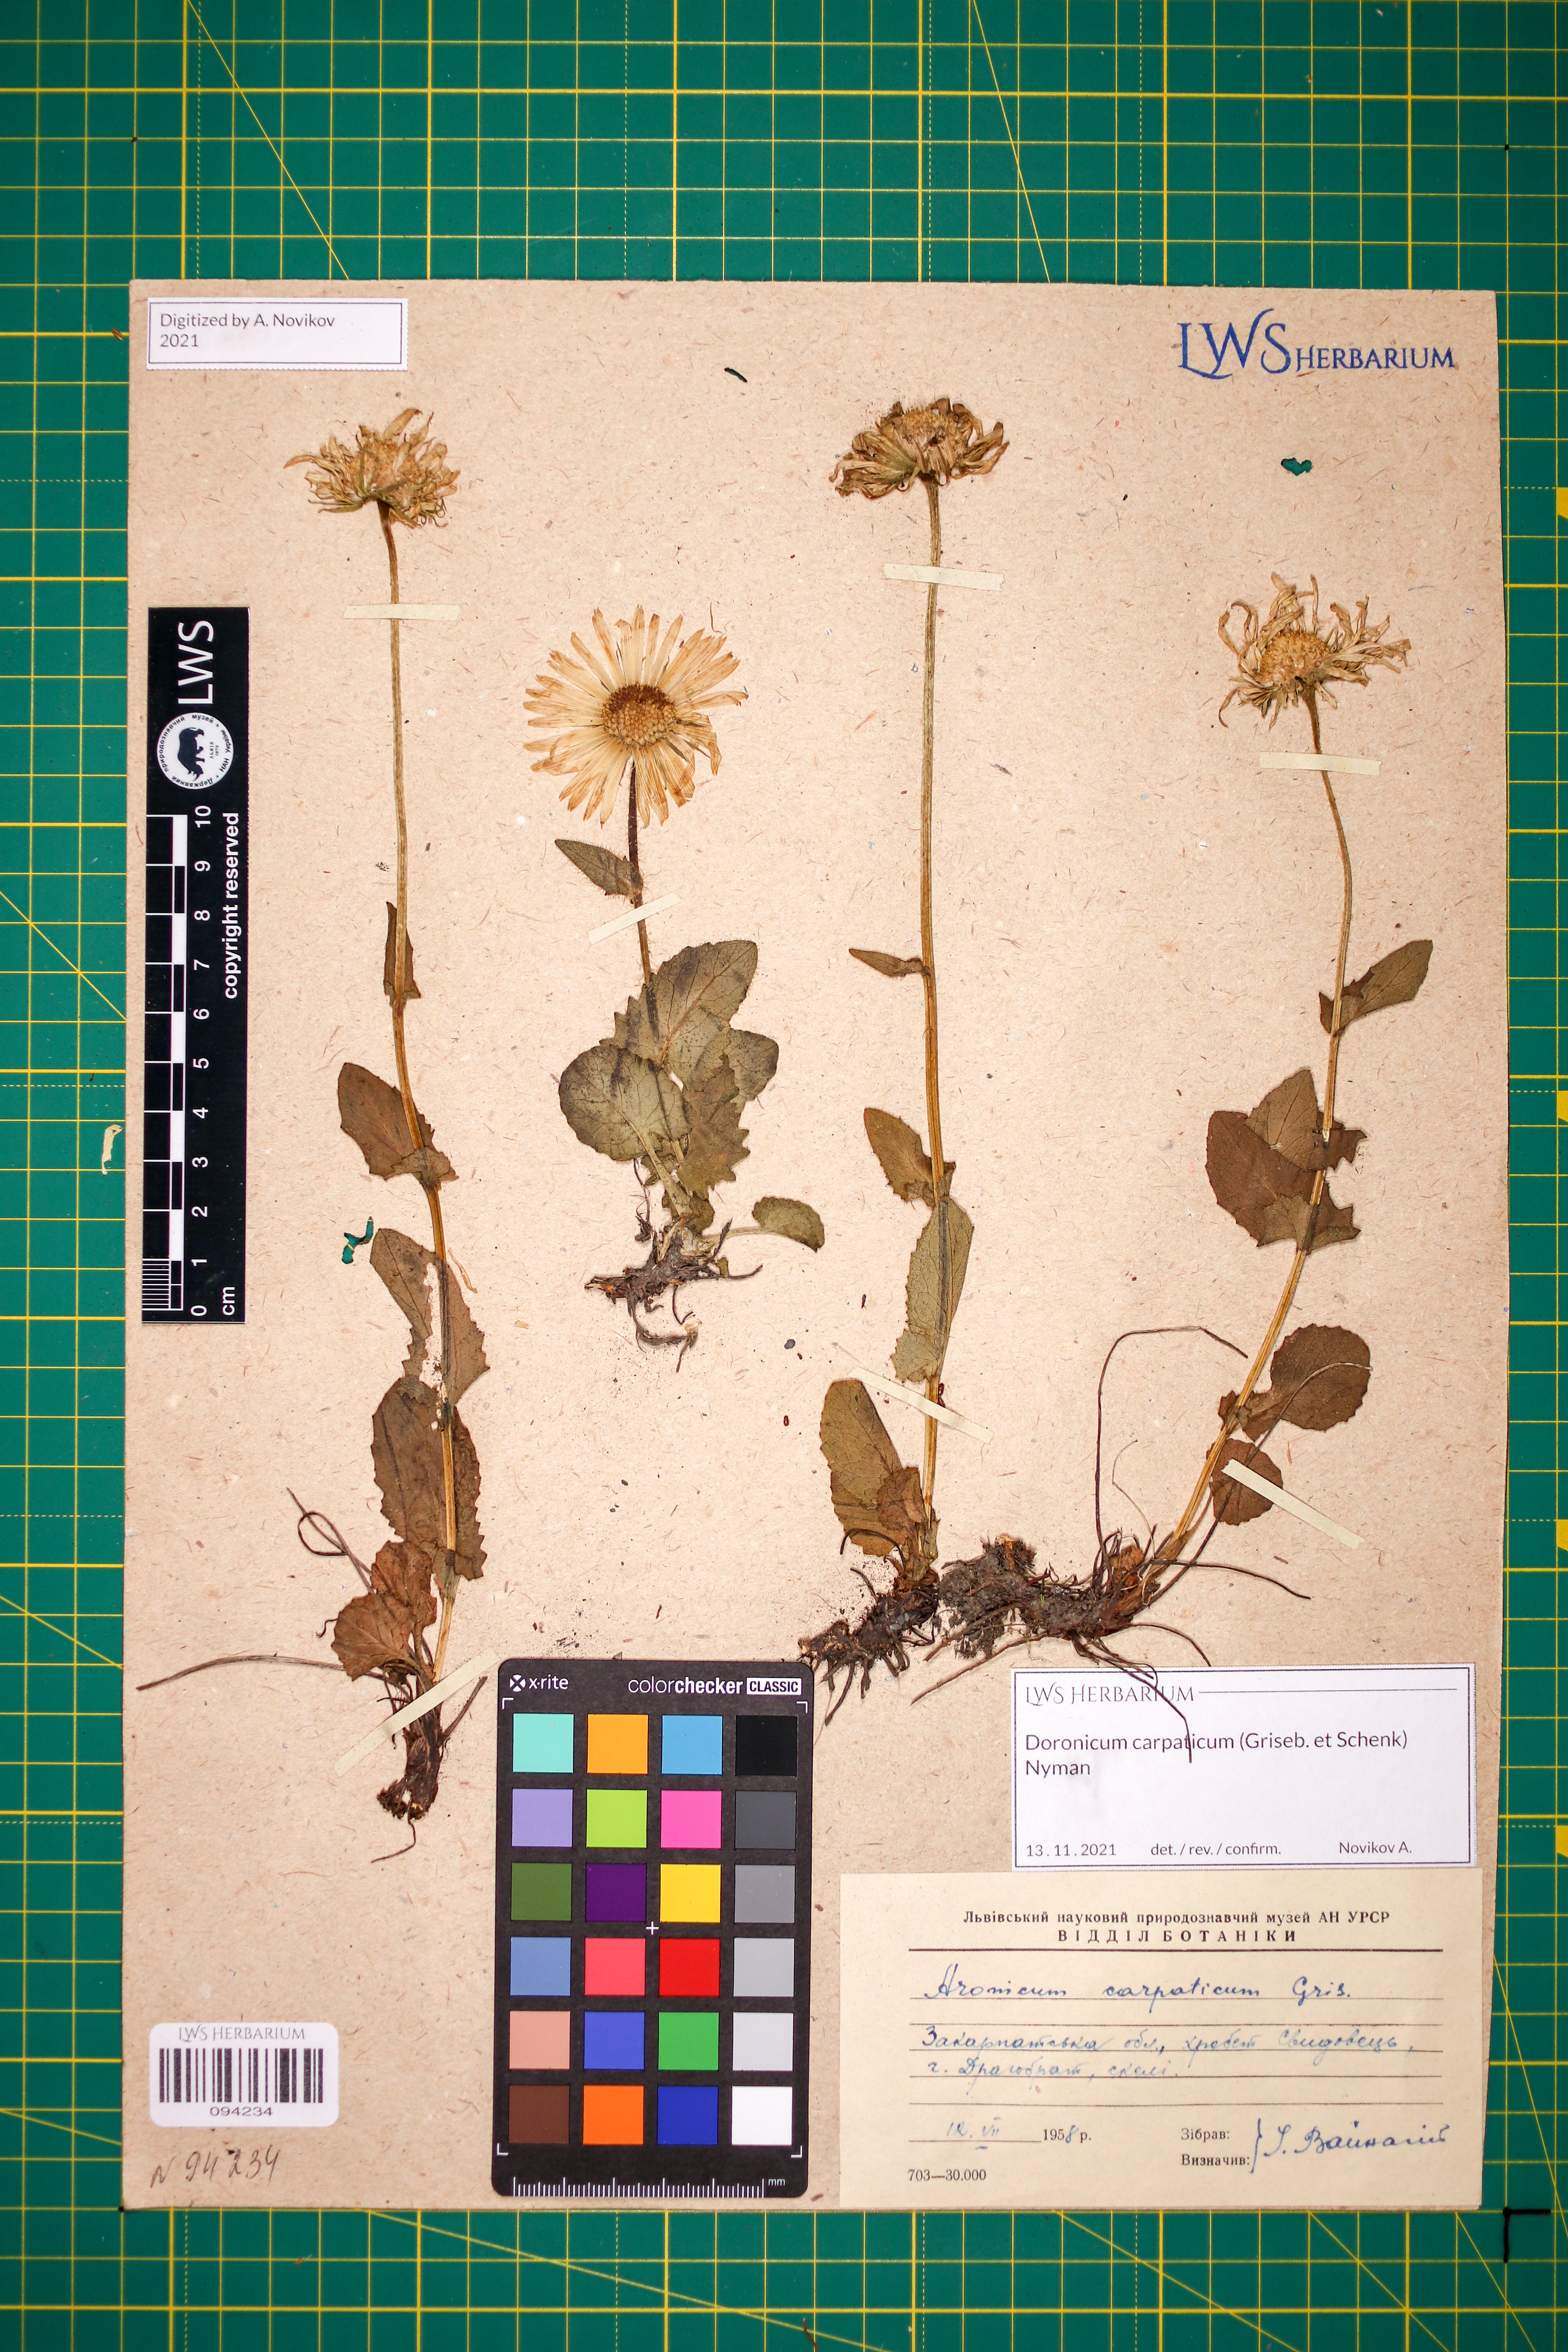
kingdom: Plantae
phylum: Tracheophyta
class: Magnoliopsida
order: Asterales
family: Asteraceae
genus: Doronicum
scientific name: Doronicum carpaticum
